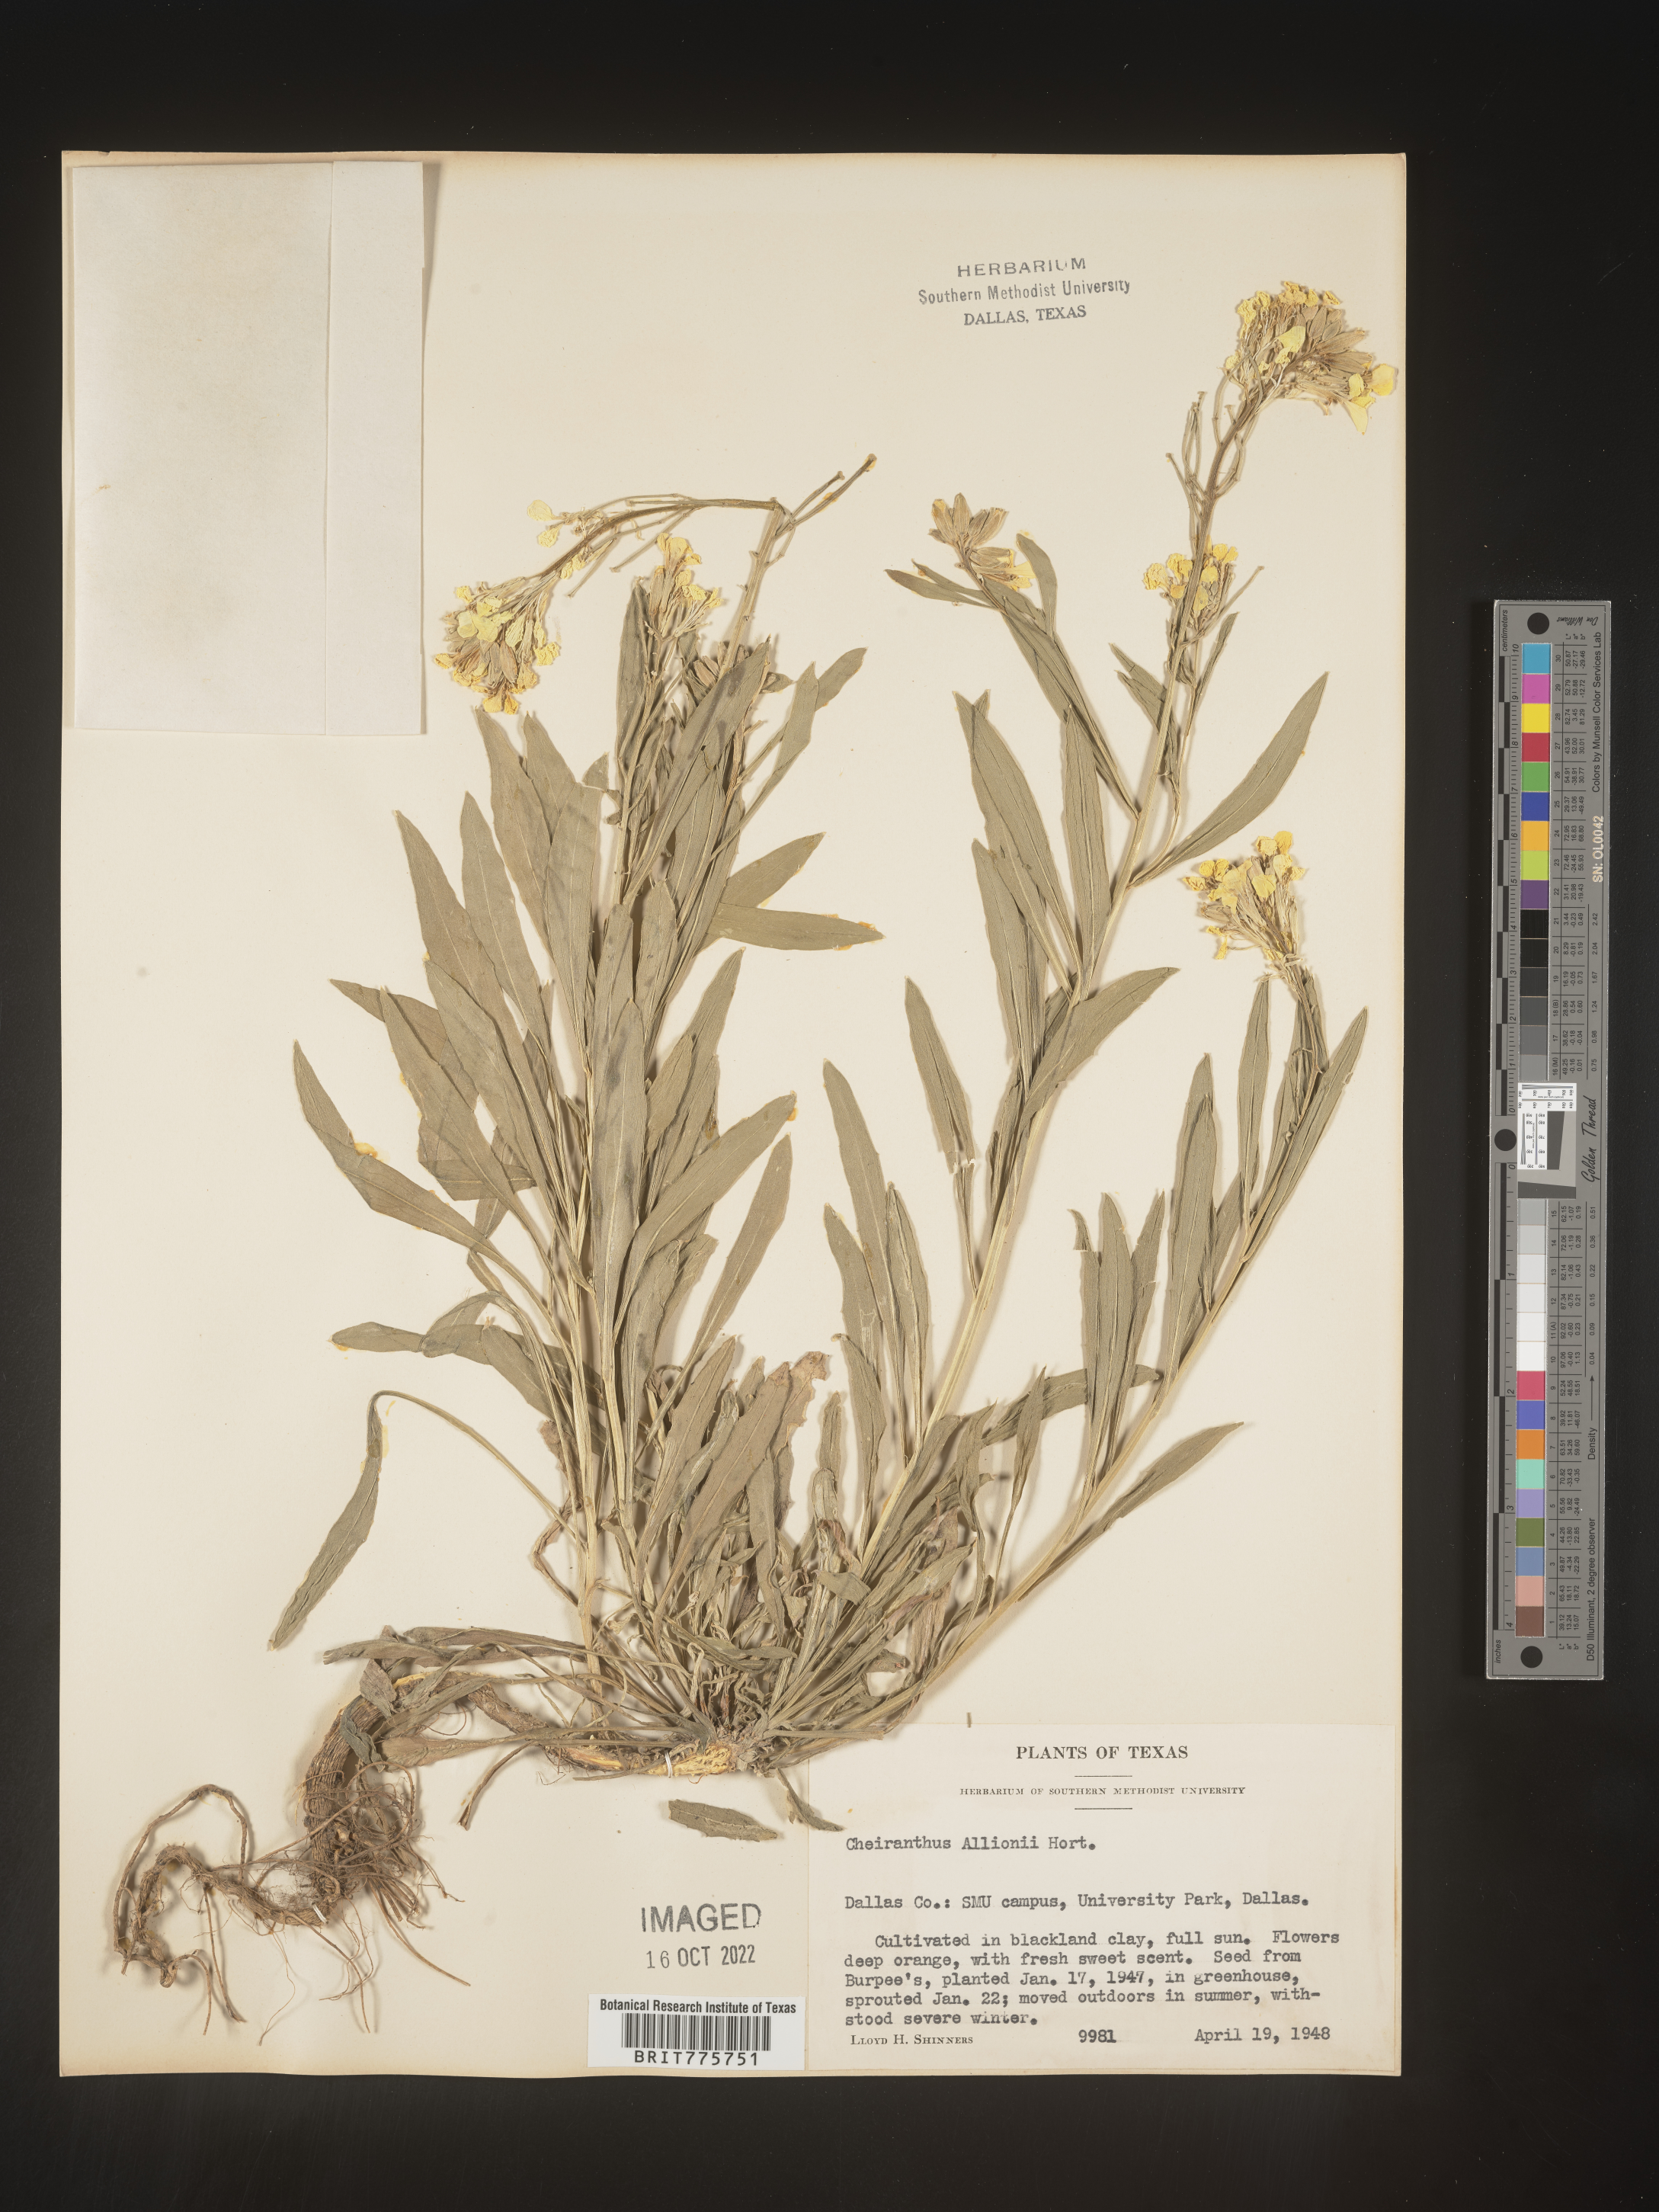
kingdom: Plantae
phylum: Tracheophyta
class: Magnoliopsida
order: Brassicales
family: Brassicaceae
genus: Erysimum
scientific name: Erysimum
